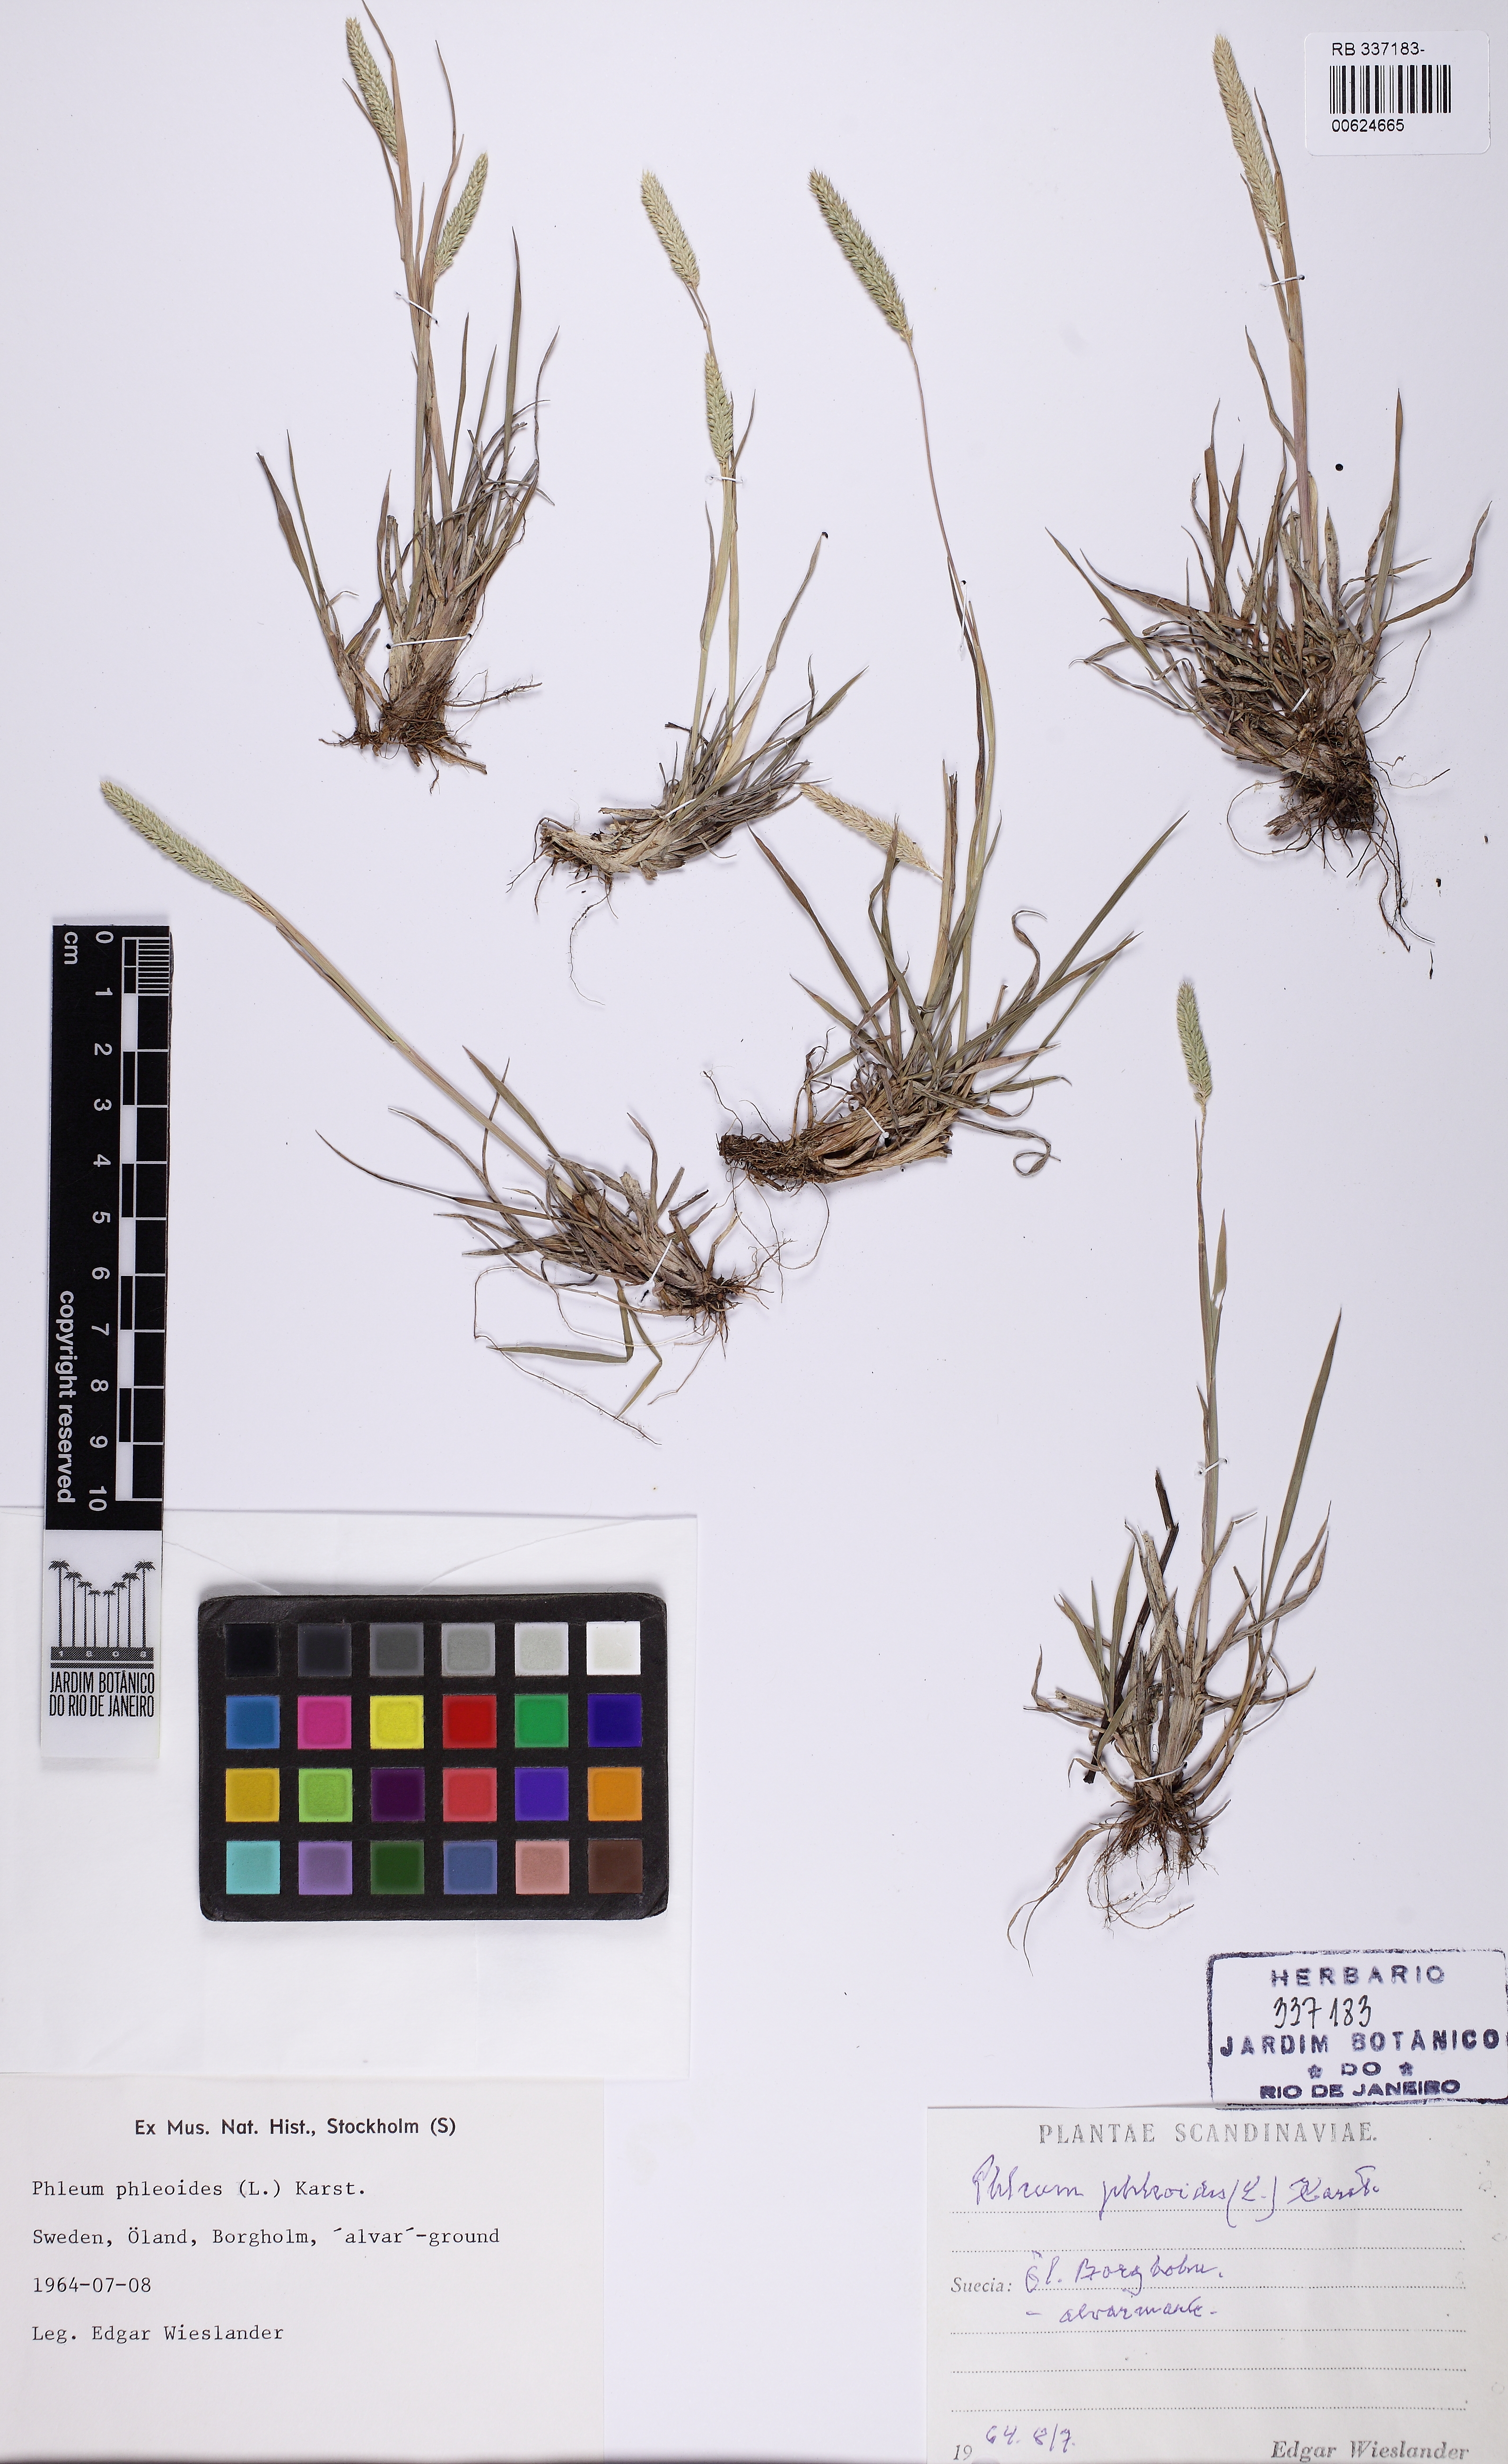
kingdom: Plantae
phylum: Tracheophyta
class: Liliopsida
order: Poales
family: Poaceae
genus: Phleum
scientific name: Phleum phleoides
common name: Purple-stem cat's-tail
